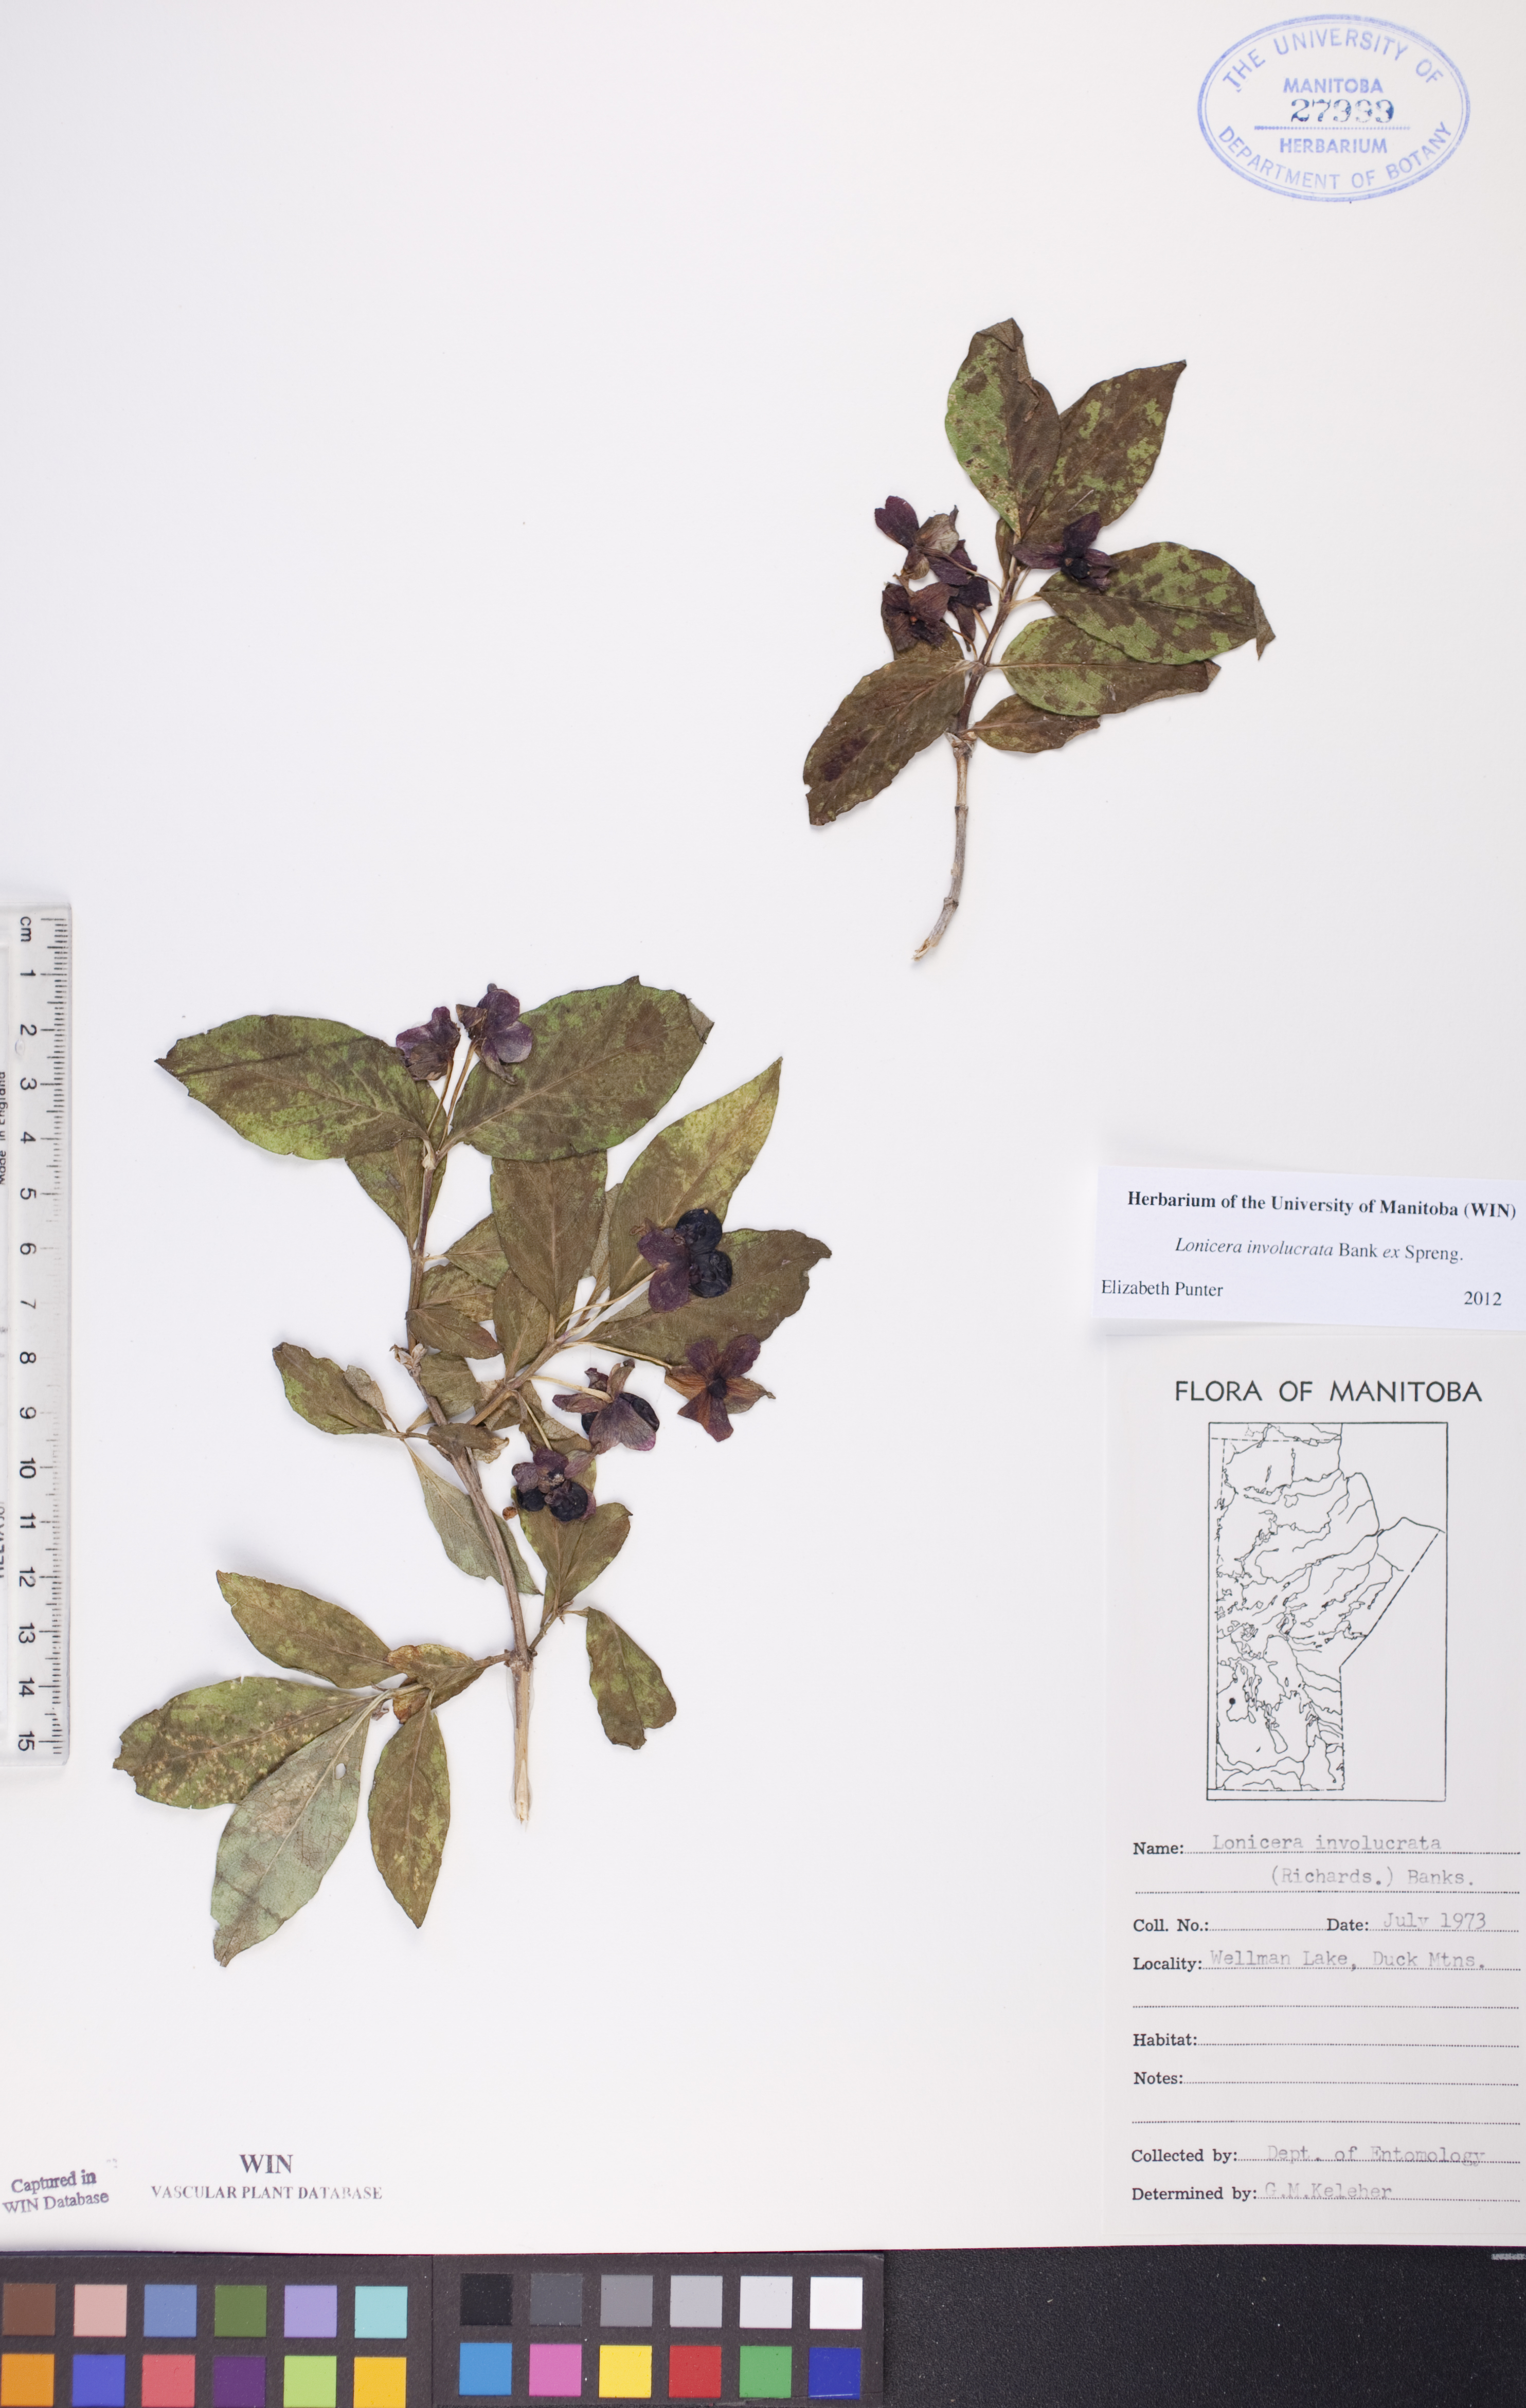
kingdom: Plantae
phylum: Tracheophyta
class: Magnoliopsida
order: Dipsacales
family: Caprifoliaceae
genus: Lonicera
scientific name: Lonicera involucrata
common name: Californian honeysuckle
